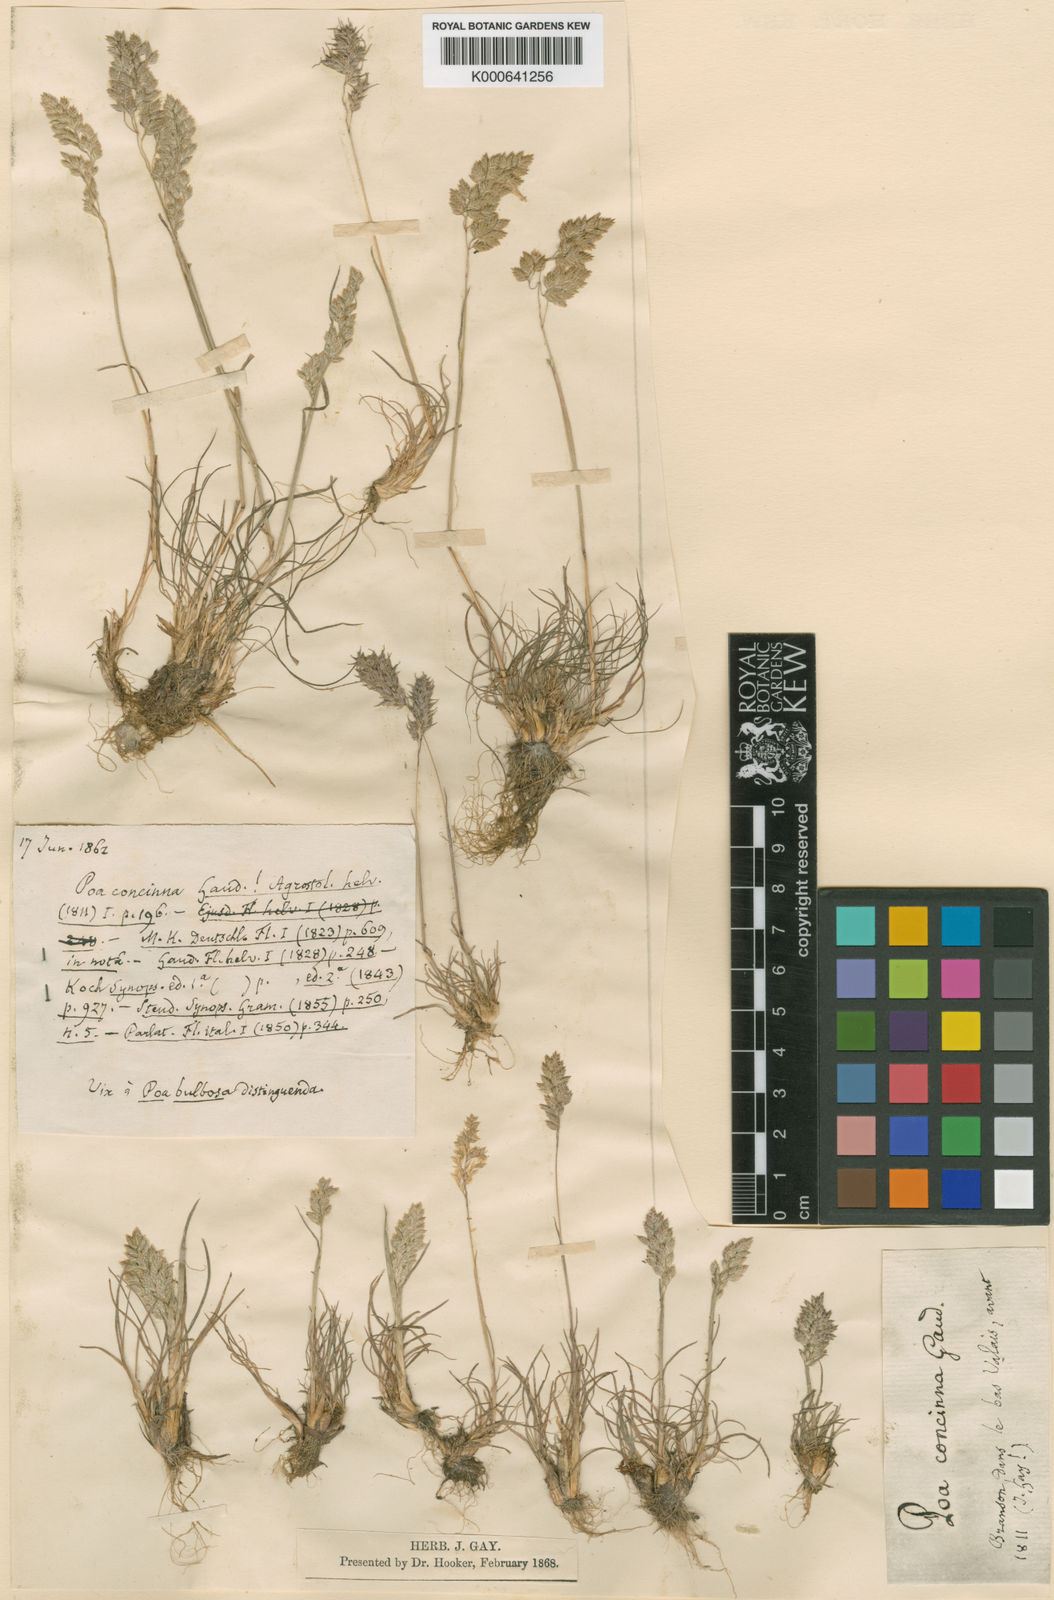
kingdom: Plantae
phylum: Tracheophyta
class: Liliopsida
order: Poales
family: Poaceae
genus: Poa
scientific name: Poa perconcinna
